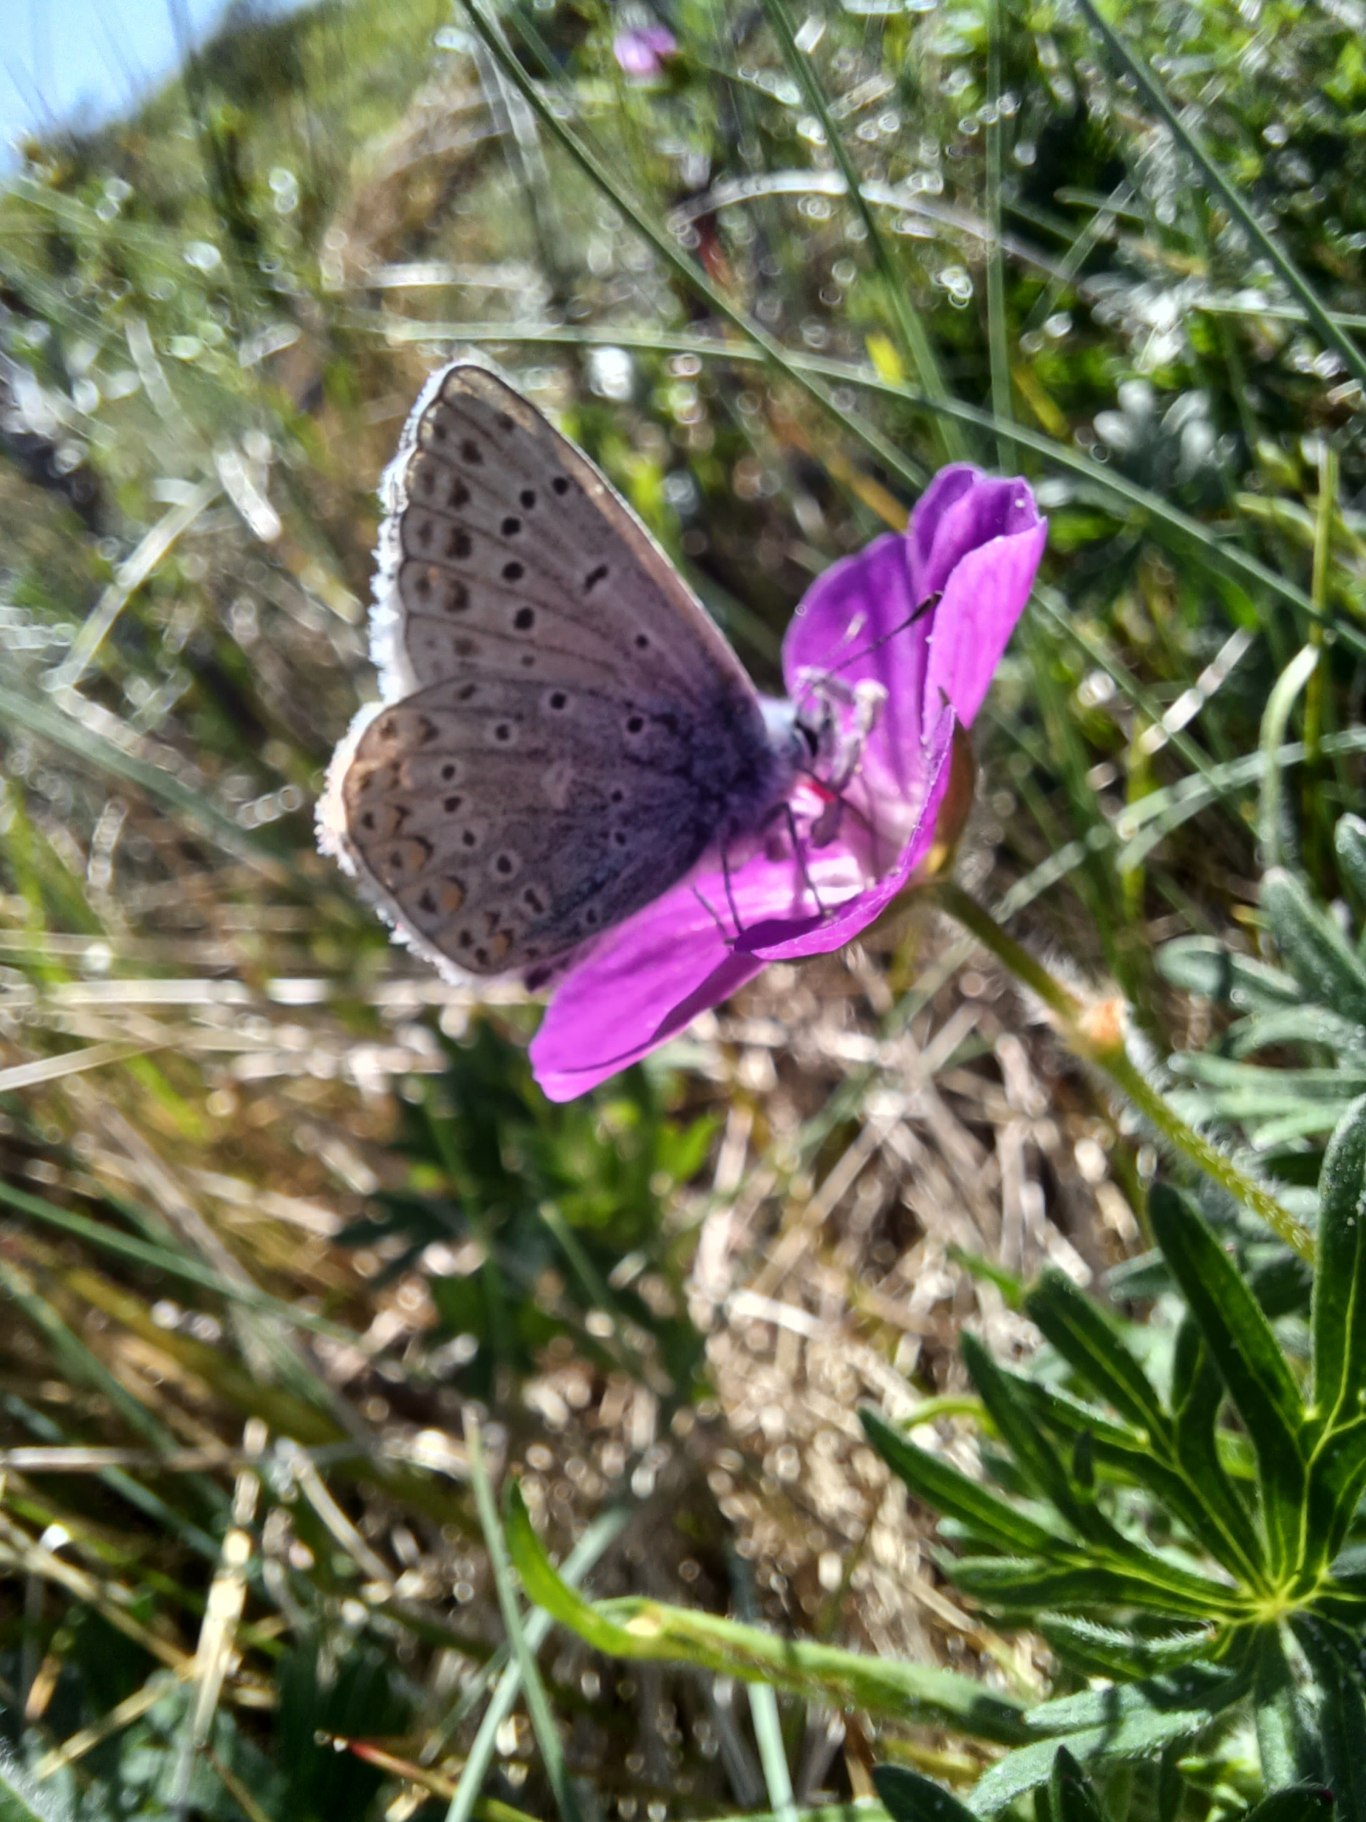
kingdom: Animalia
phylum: Arthropoda
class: Insecta
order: Lepidoptera
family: Lycaenidae
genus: Polyommatus
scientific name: Polyommatus icarus
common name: Almindelig blåfugl
